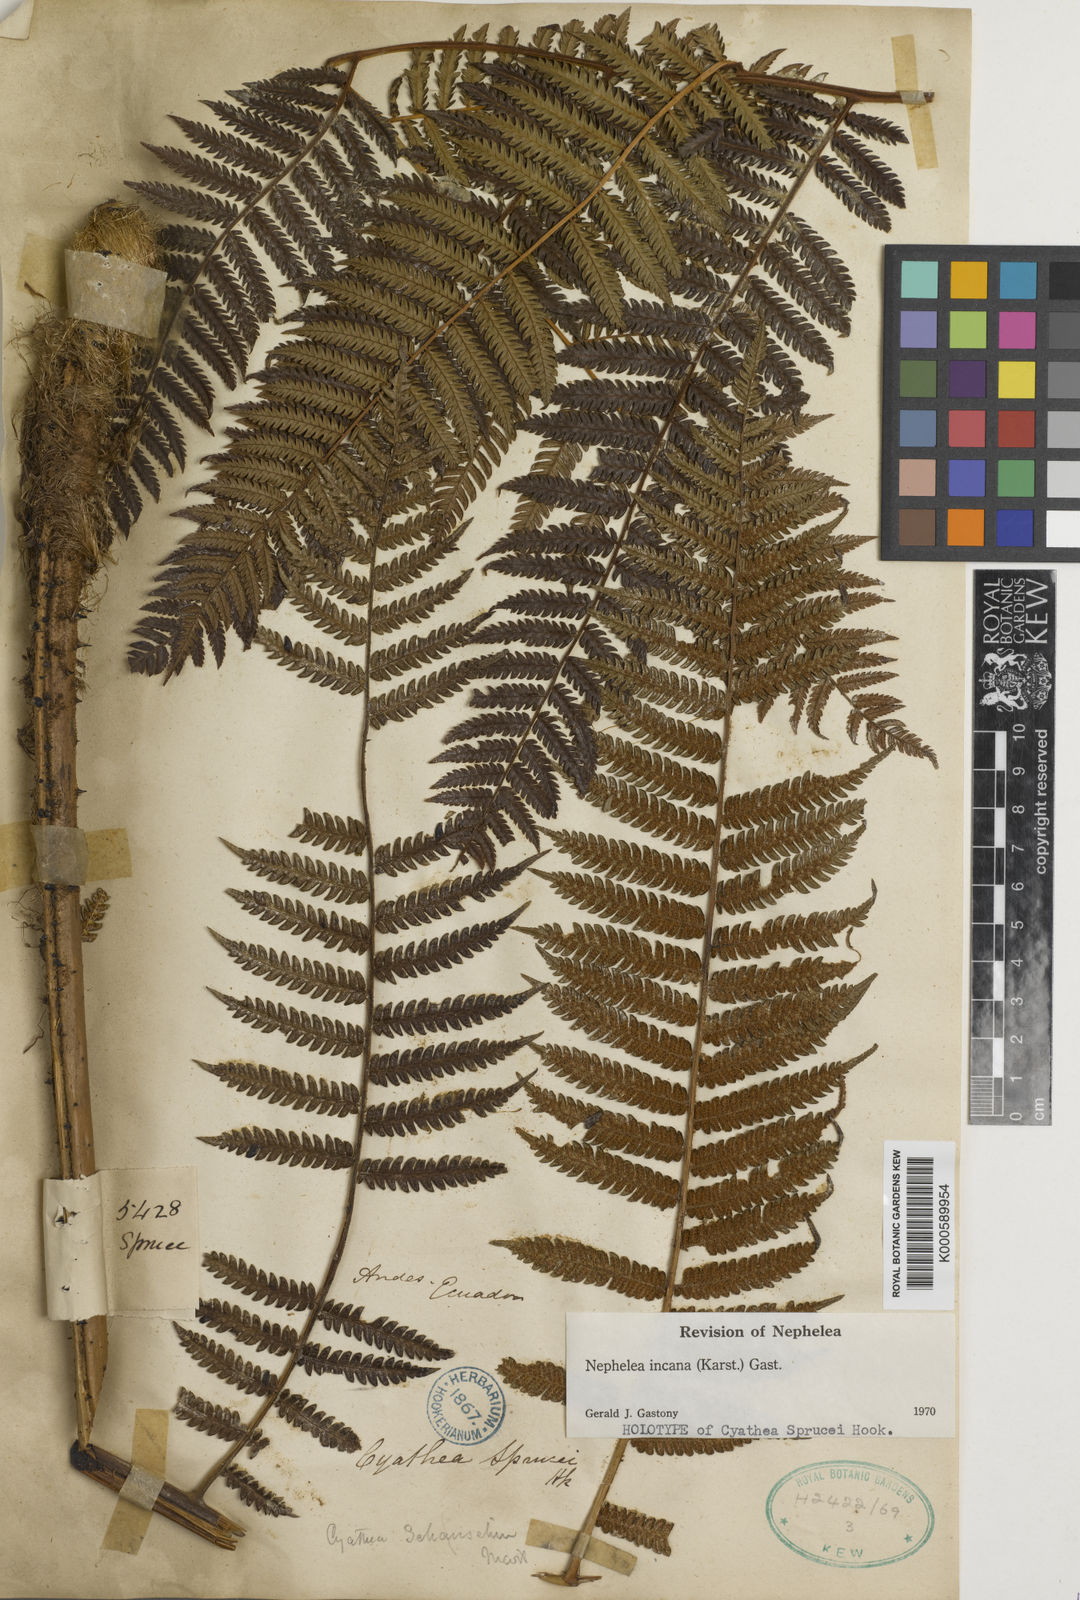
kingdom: Plantae
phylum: Tracheophyta
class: Polypodiopsida
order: Cyatheales
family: Cyatheaceae
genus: Alsophila
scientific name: Alsophila incana
